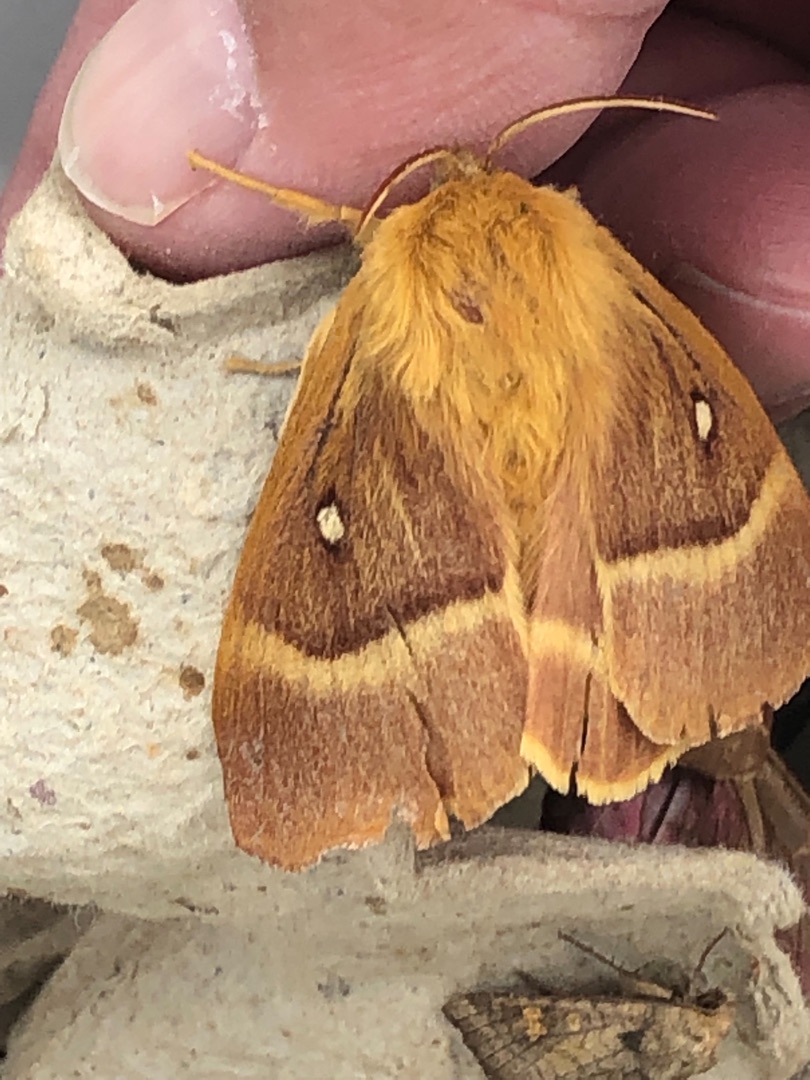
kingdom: Animalia
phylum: Arthropoda
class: Insecta
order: Lepidoptera
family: Lasiocampidae
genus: Lasiocampa
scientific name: Lasiocampa quercus
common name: Egespinder
